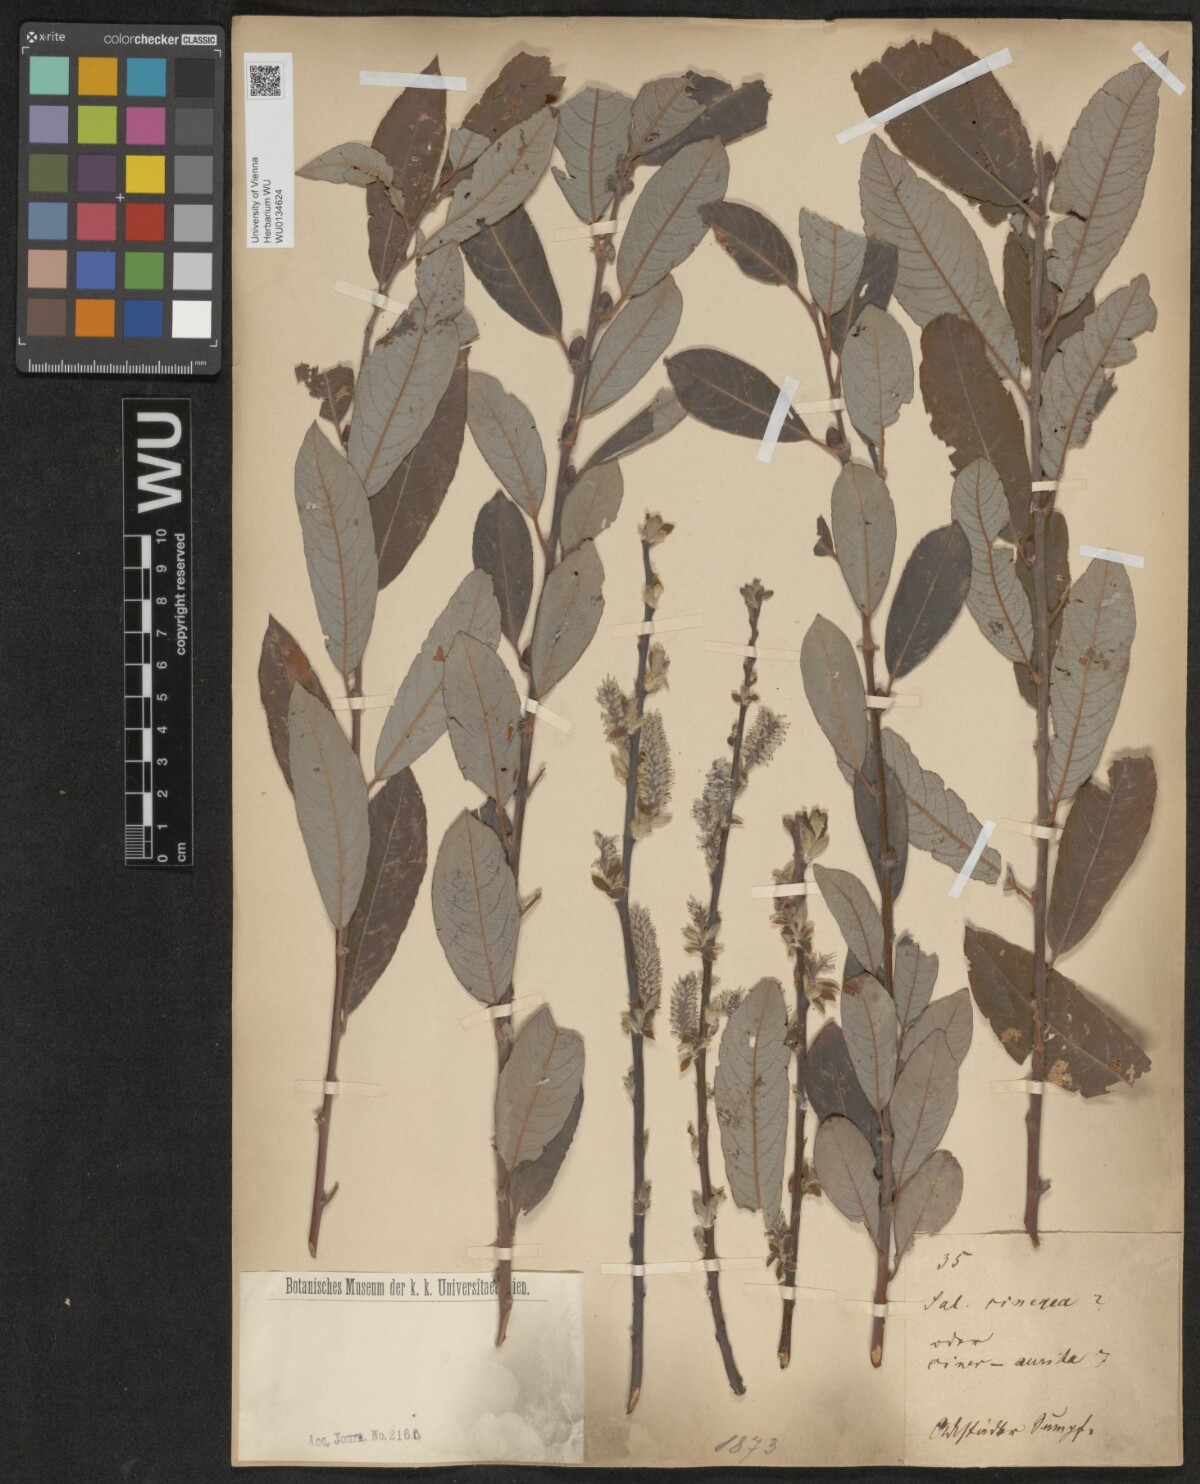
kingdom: Plantae
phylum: Tracheophyta
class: Magnoliopsida
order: Malpighiales
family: Salicaceae
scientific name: Salicaceae
